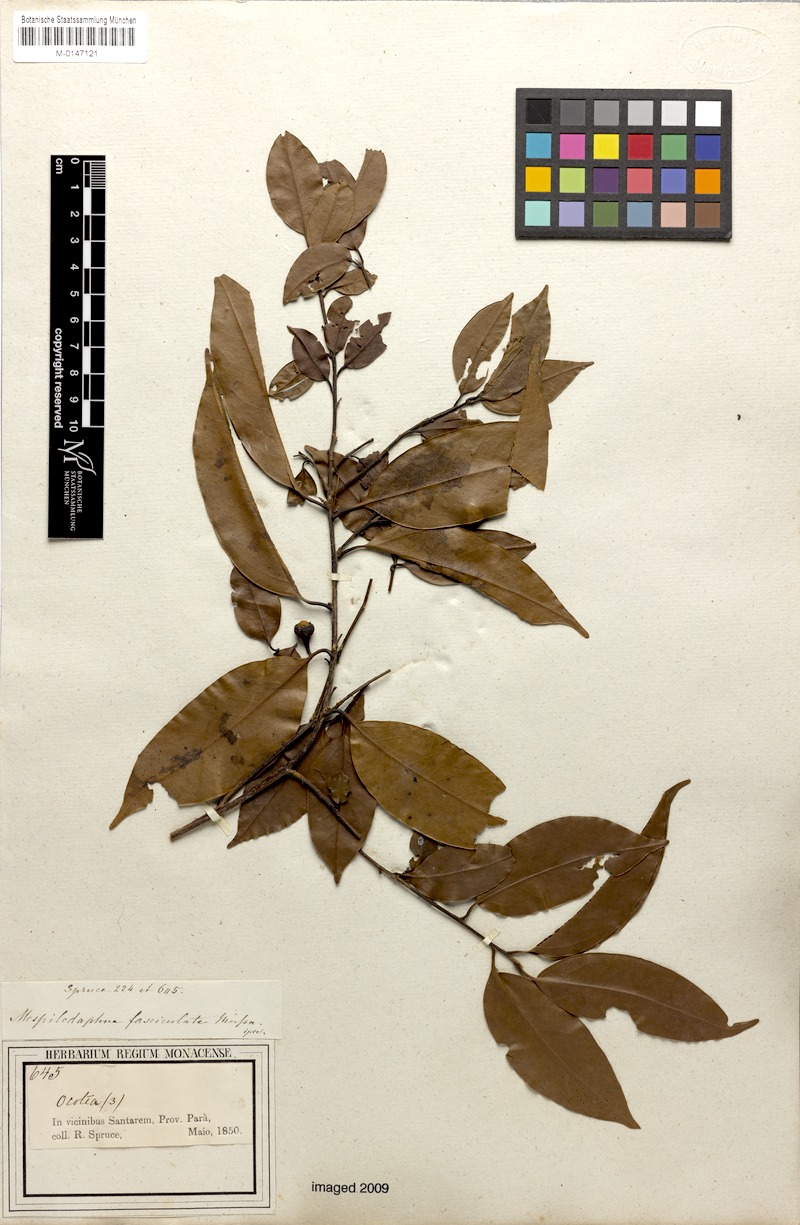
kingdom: Plantae
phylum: Tracheophyta
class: Magnoliopsida
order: Laurales
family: Lauraceae
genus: Mespilodaphne
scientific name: Mespilodaphne fasciculata
